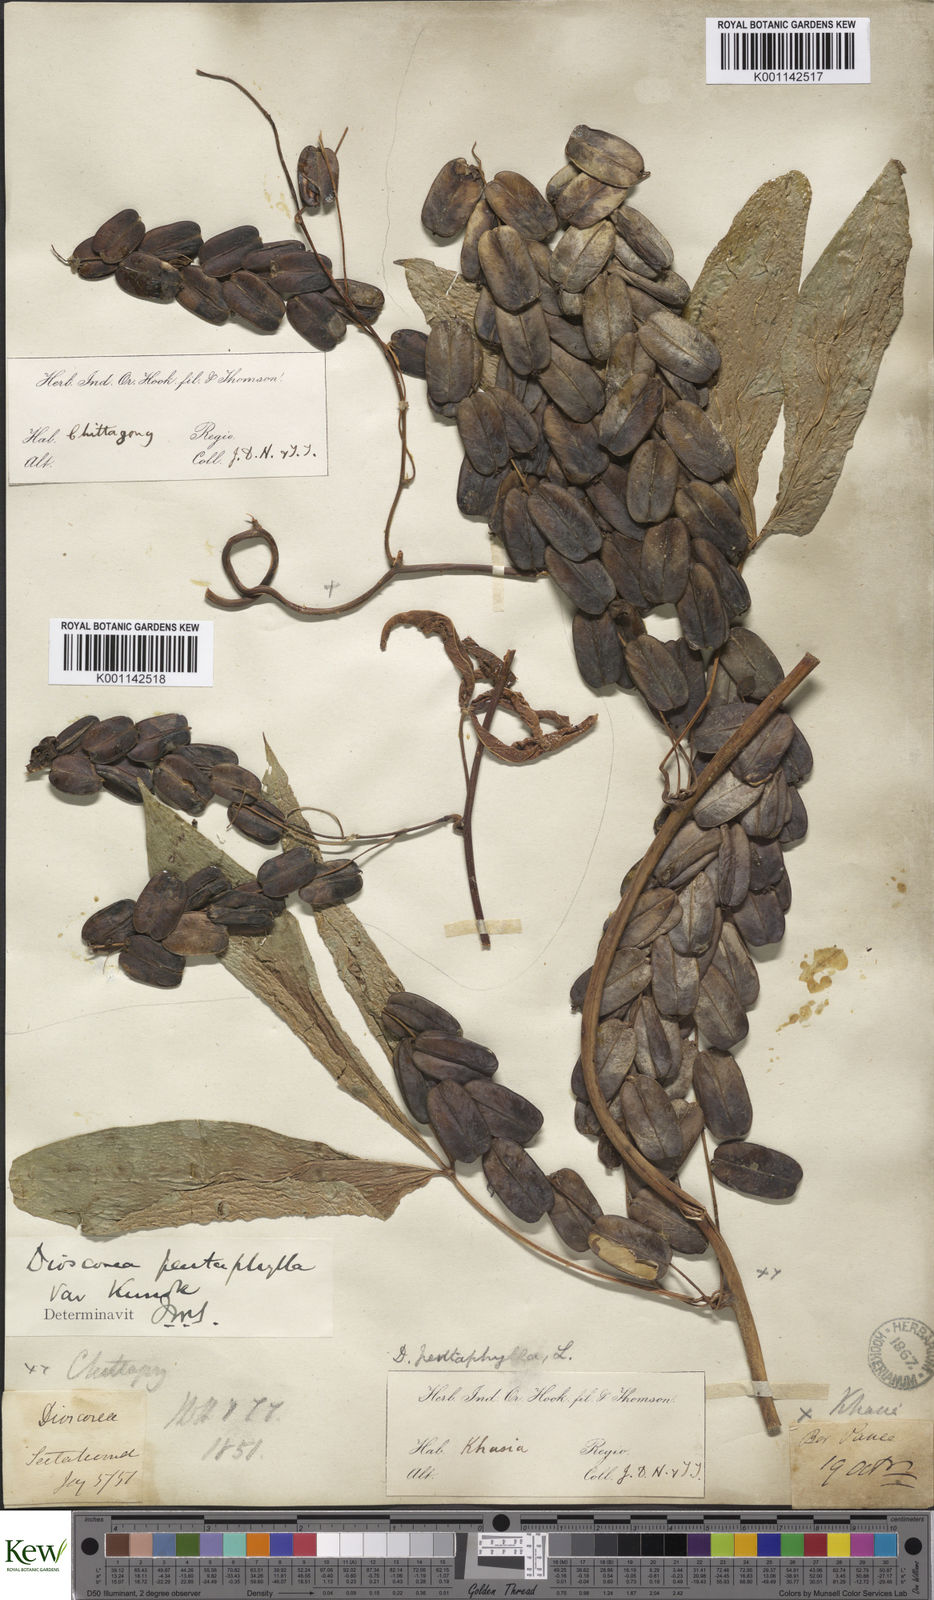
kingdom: Plantae
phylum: Tracheophyta
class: Liliopsida
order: Dioscoreales
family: Dioscoreaceae
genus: Dioscorea
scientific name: Dioscorea pentaphylla
